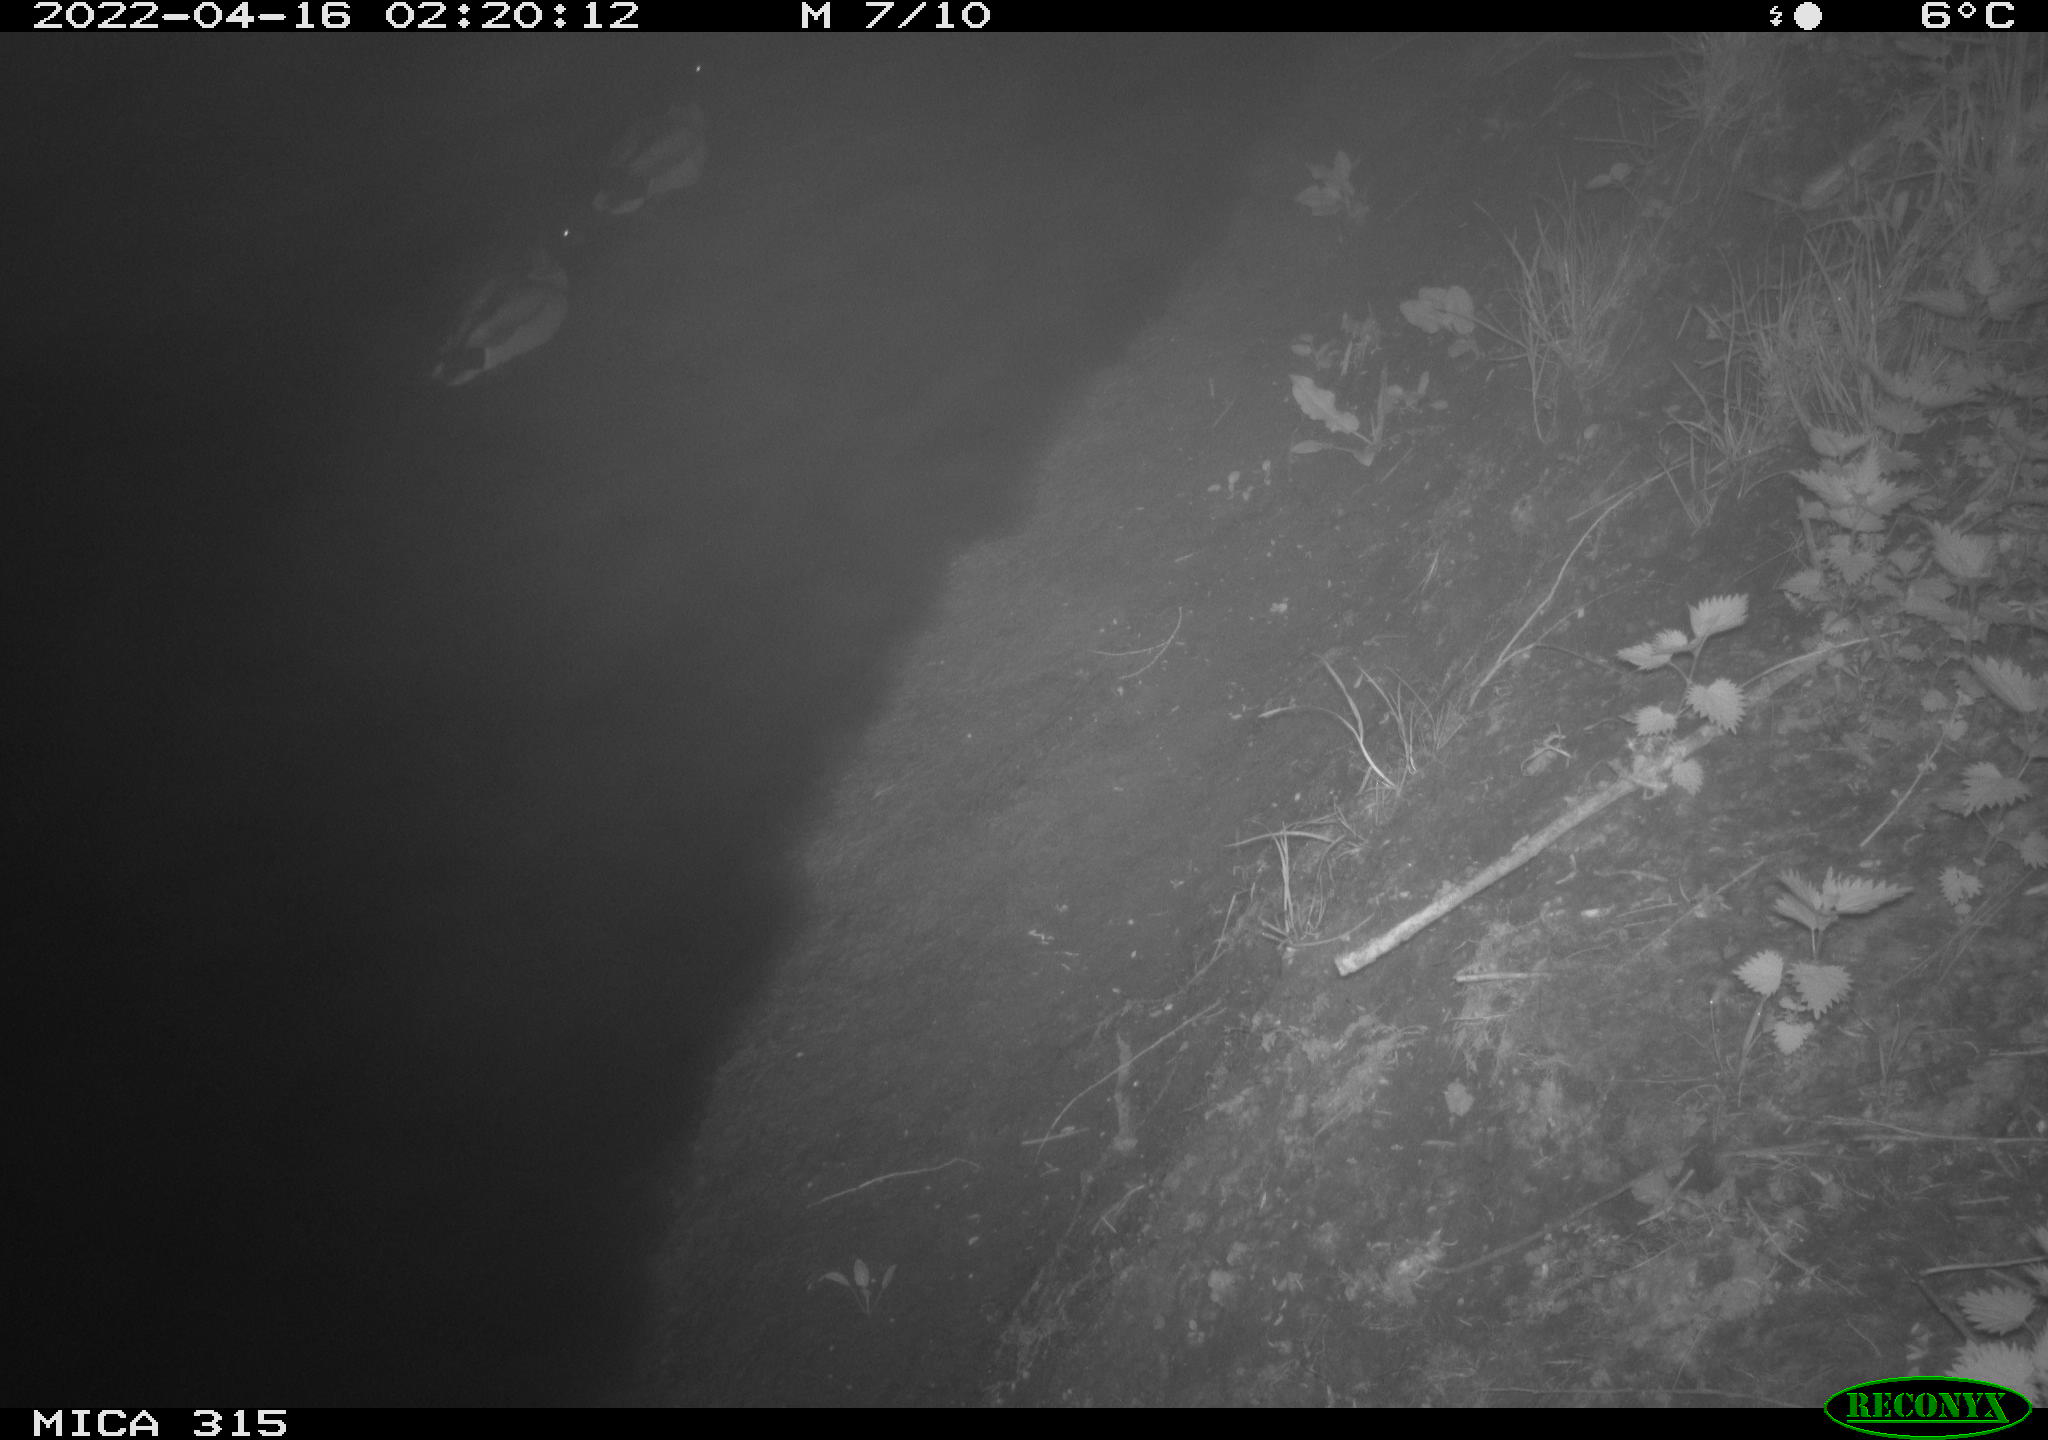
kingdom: Animalia
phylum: Chordata
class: Aves
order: Anseriformes
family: Anatidae
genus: Anas
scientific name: Anas platyrhynchos
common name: Mallard
